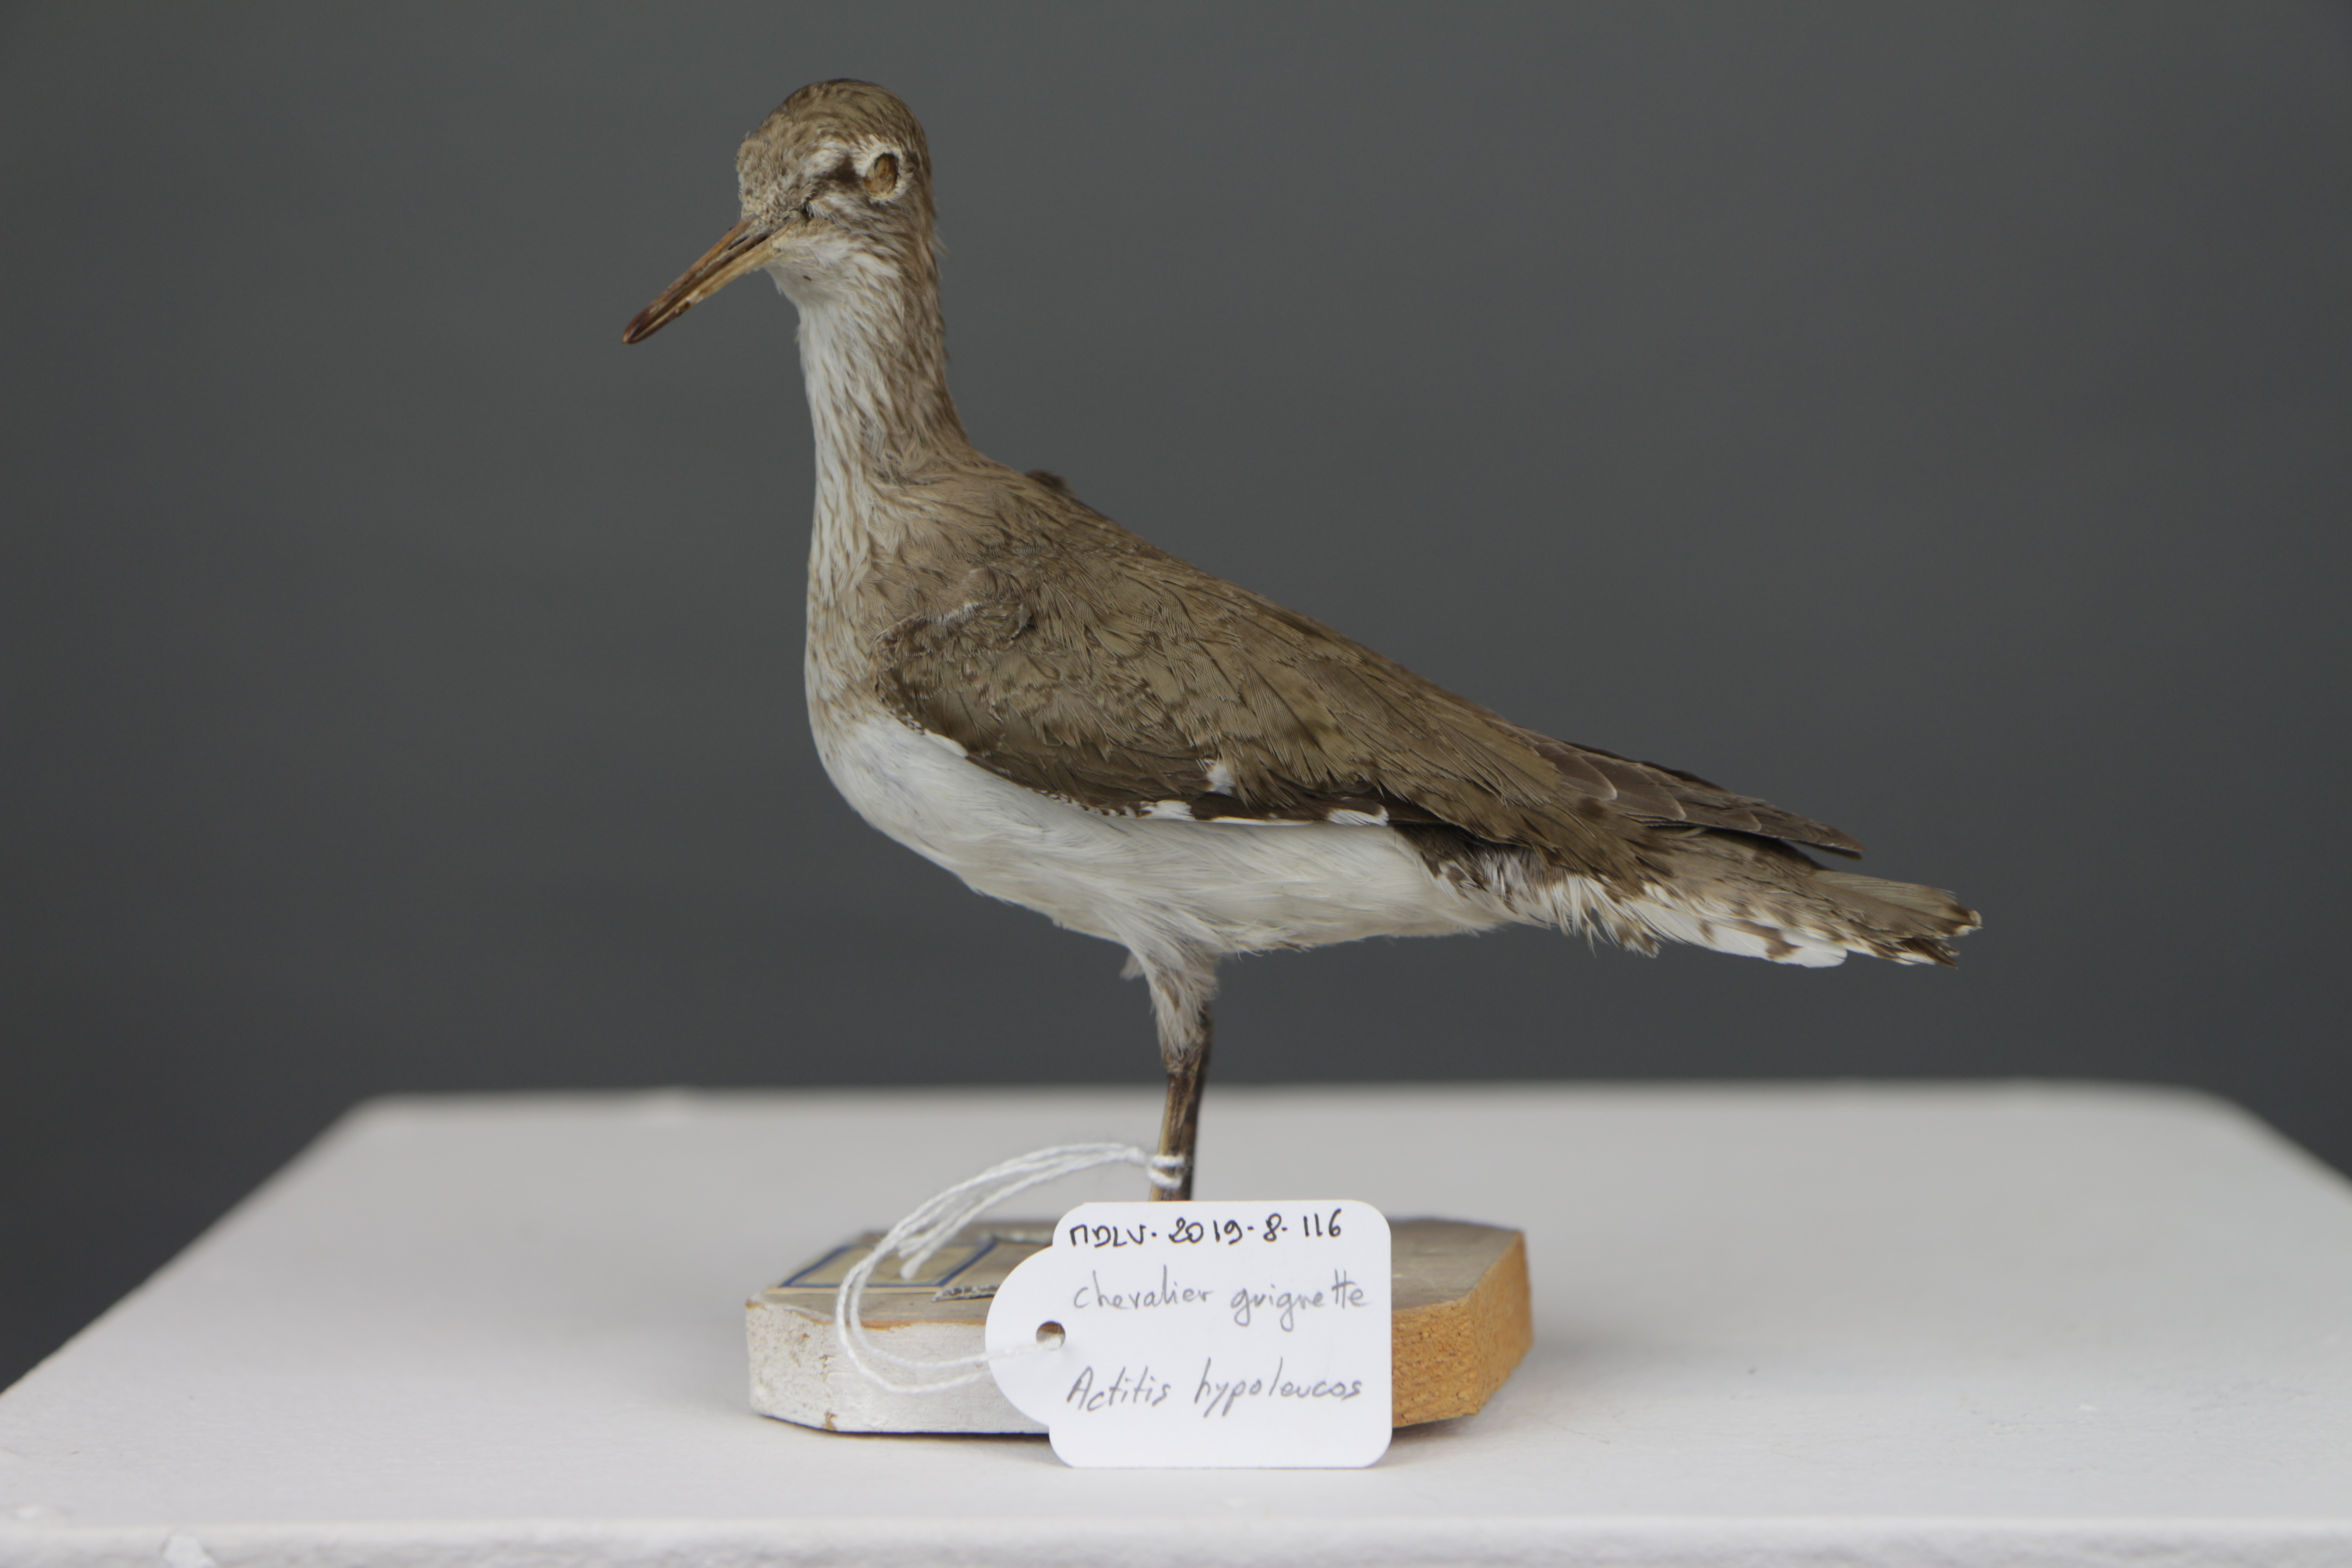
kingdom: Animalia
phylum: Chordata
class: Aves
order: Charadriiformes
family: Scolopacidae
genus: Actitis
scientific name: Actitis hypoleucos
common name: Common sandpiper
